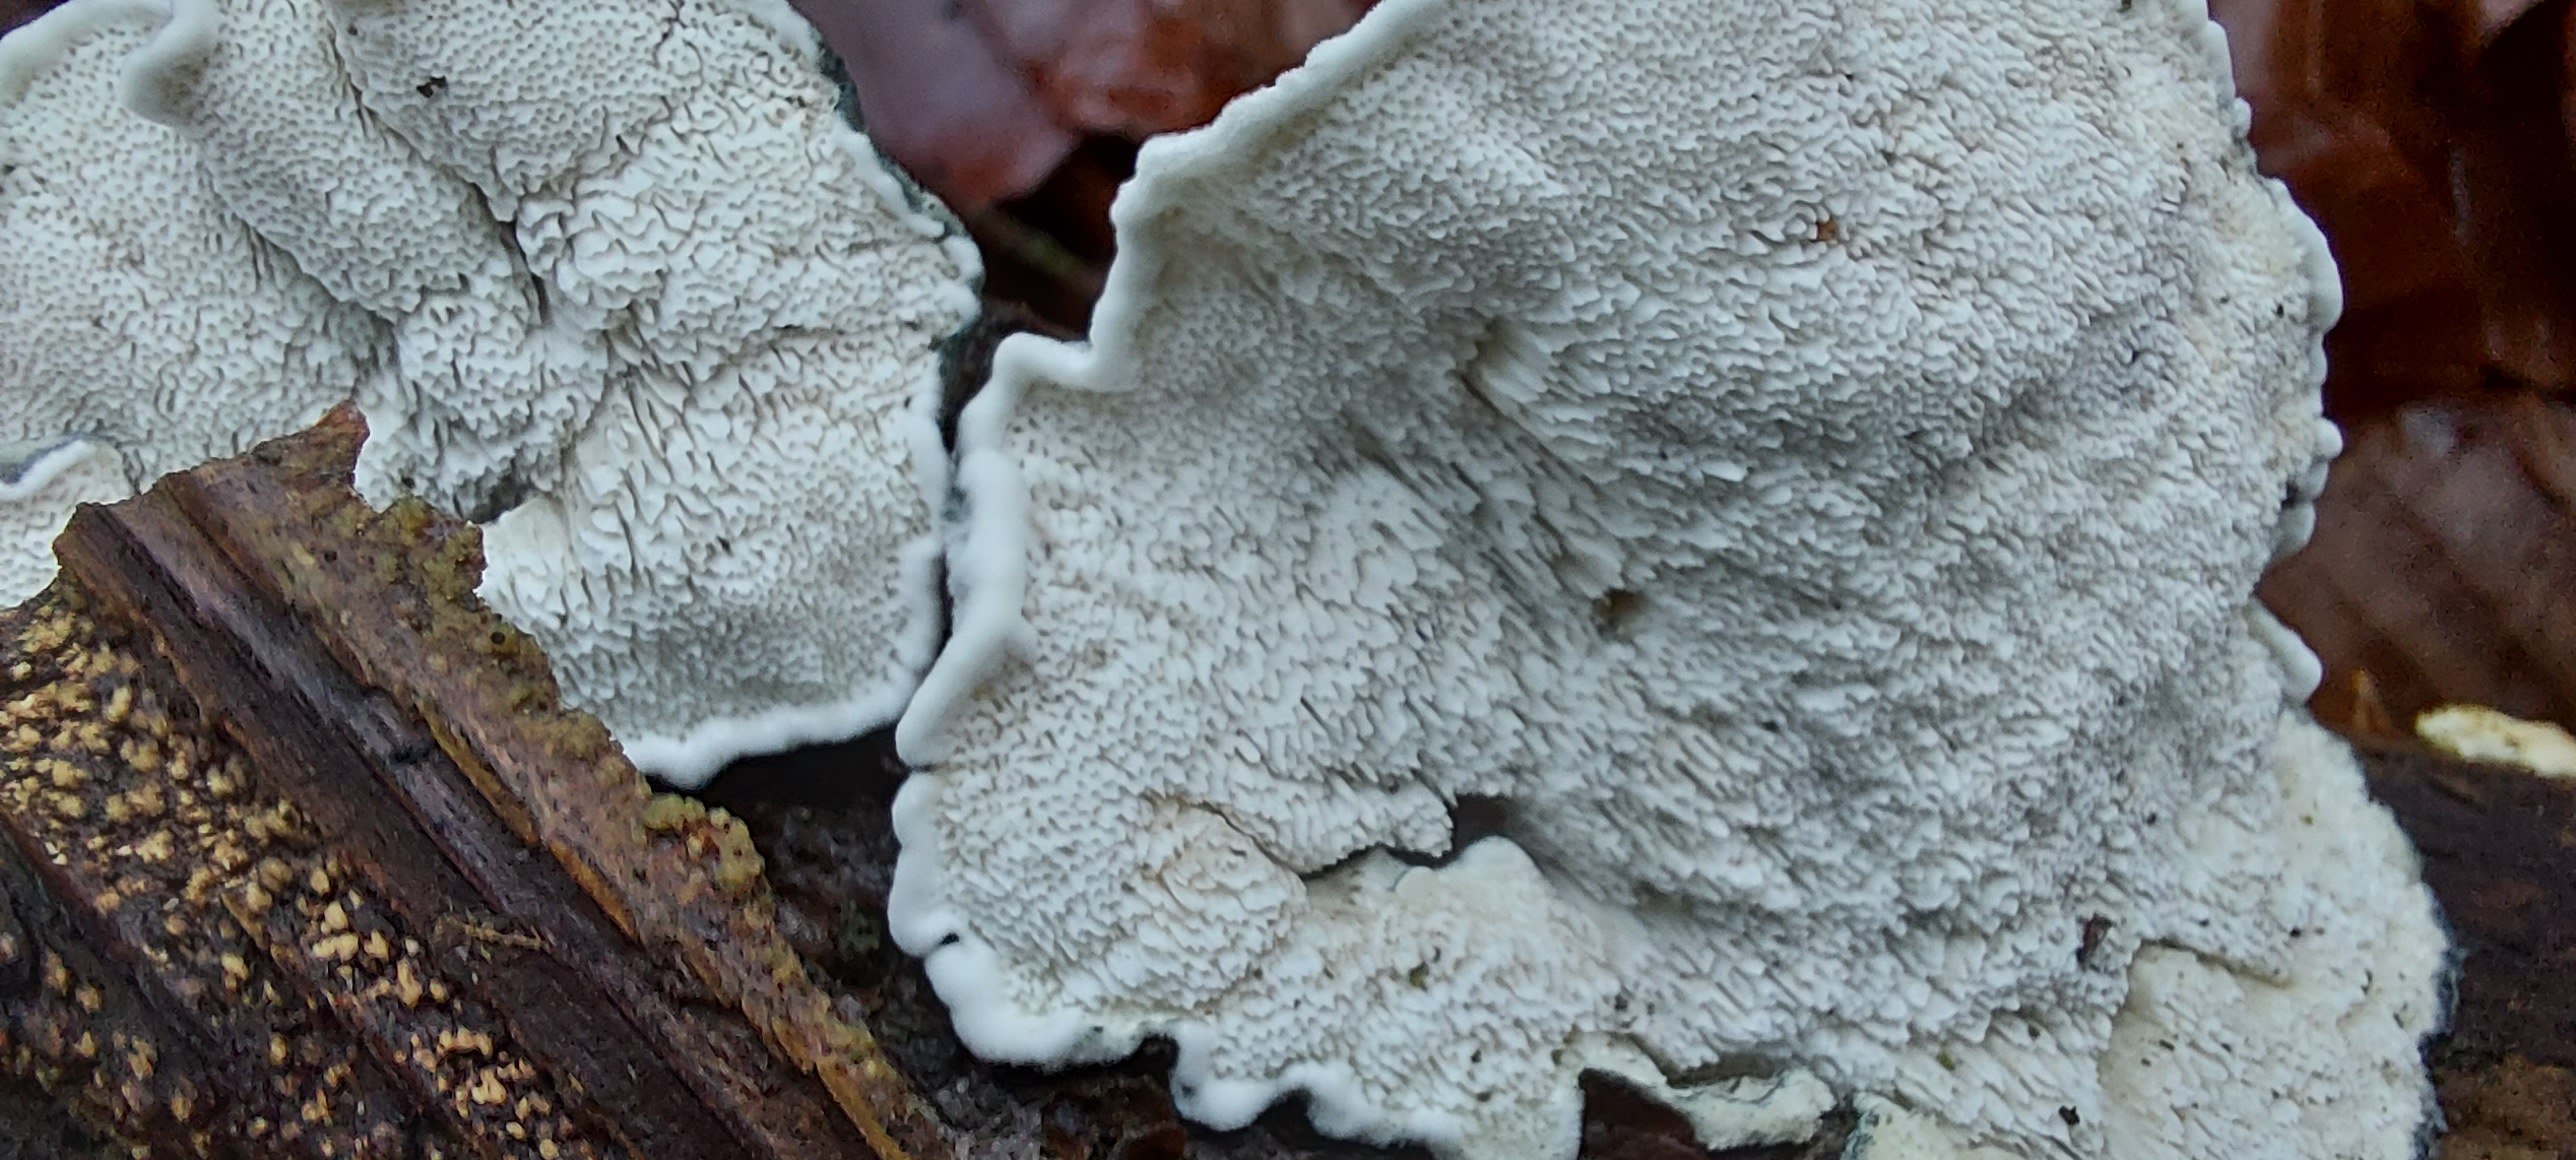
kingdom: Fungi
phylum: Basidiomycota
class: Agaricomycetes
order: Polyporales
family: Polyporaceae
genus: Cyanosporus
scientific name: Cyanosporus alni
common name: blegblå kødporesvamp
